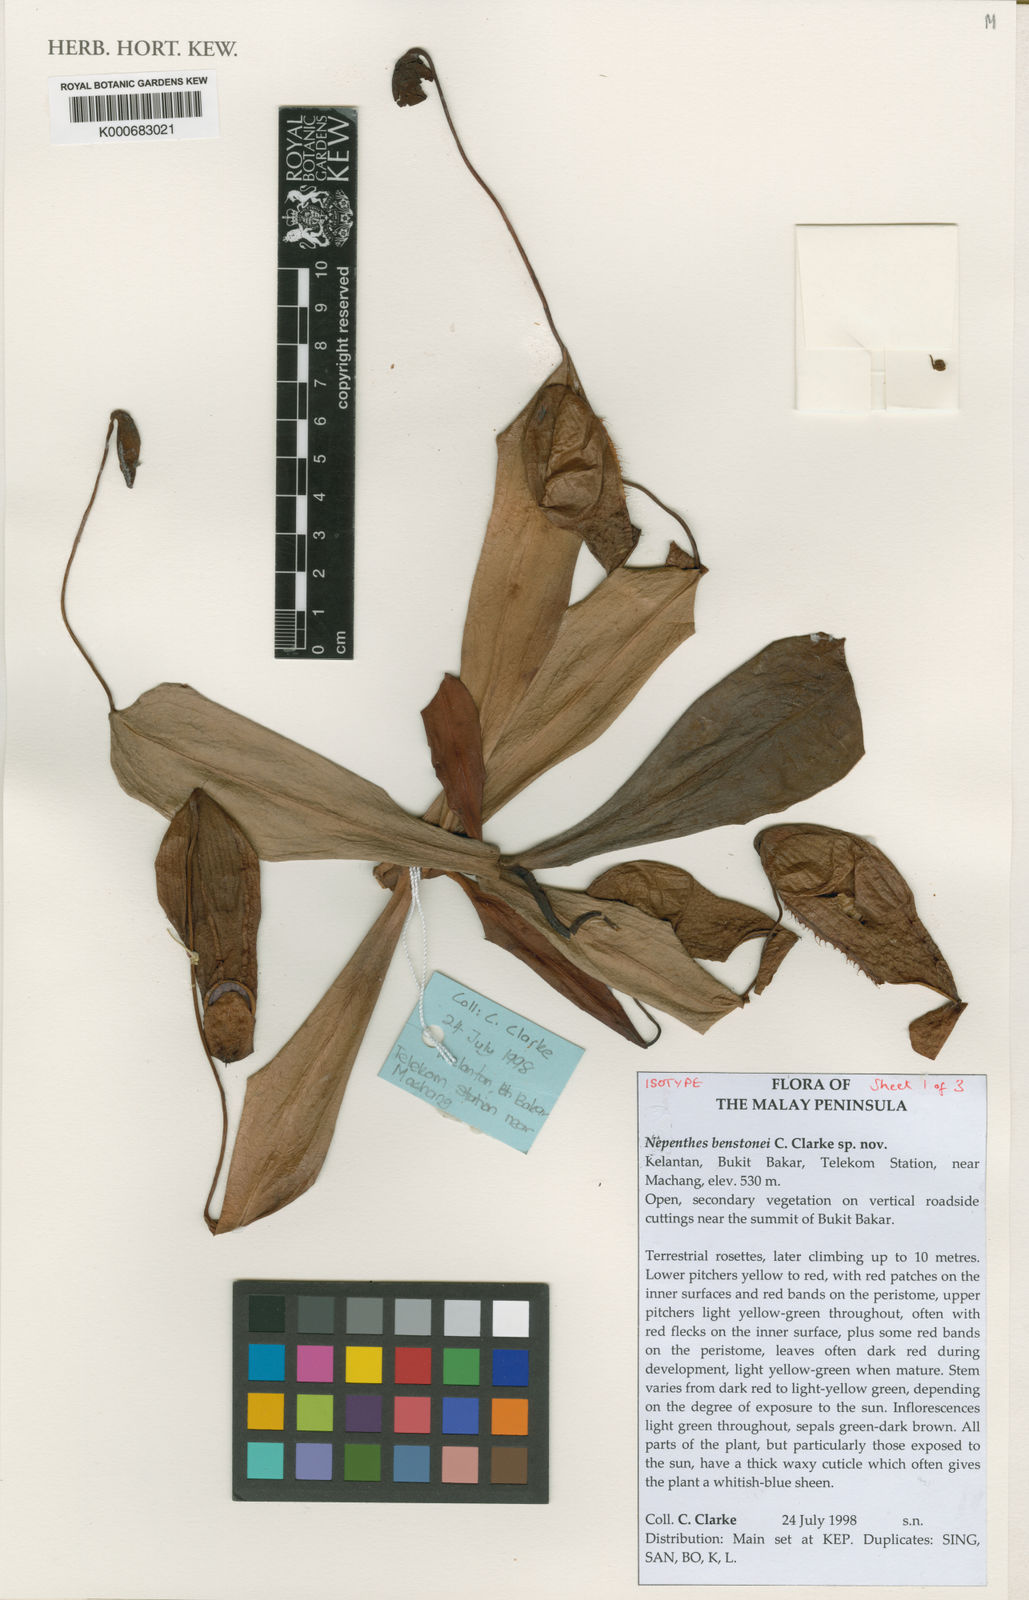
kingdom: Plantae
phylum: Tracheophyta
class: Magnoliopsida
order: Caryophyllales
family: Nepenthaceae
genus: Nepenthes
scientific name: Nepenthes benstonei
